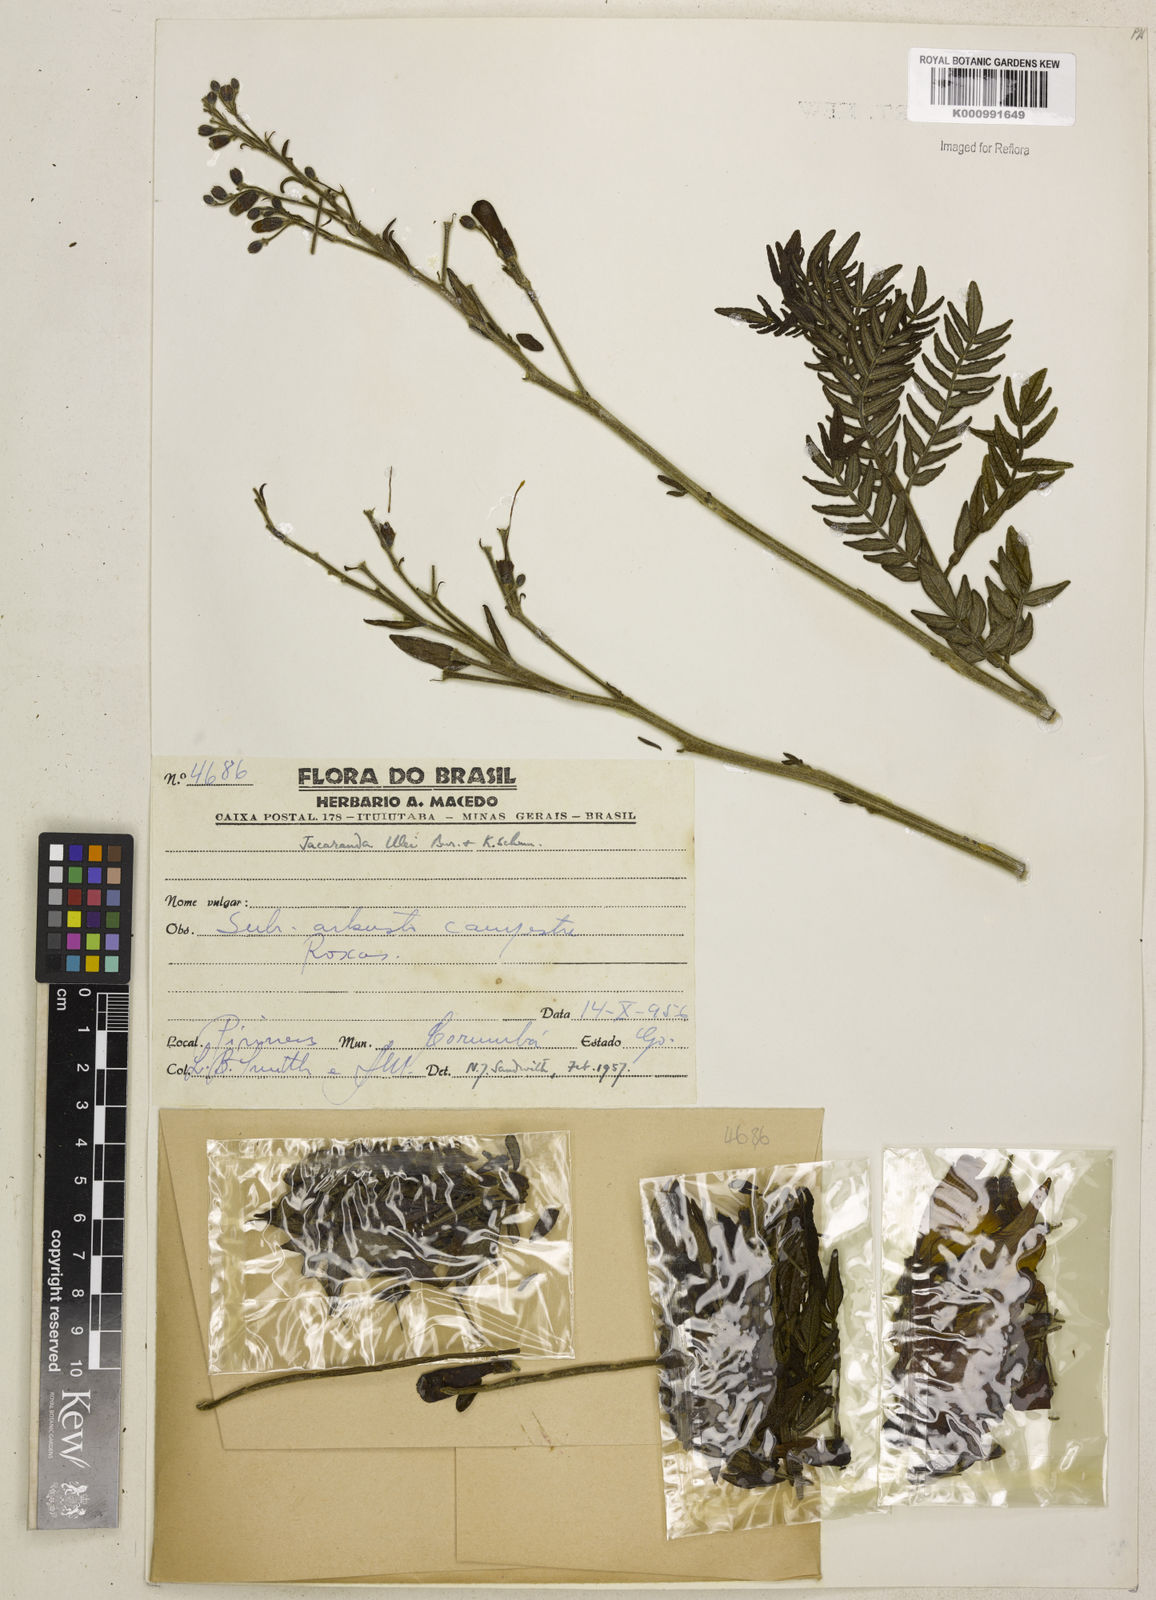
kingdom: Plantae
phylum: Tracheophyta
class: Magnoliopsida
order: Lamiales
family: Bignoniaceae
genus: Jacaranda
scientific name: Jacaranda ulei
